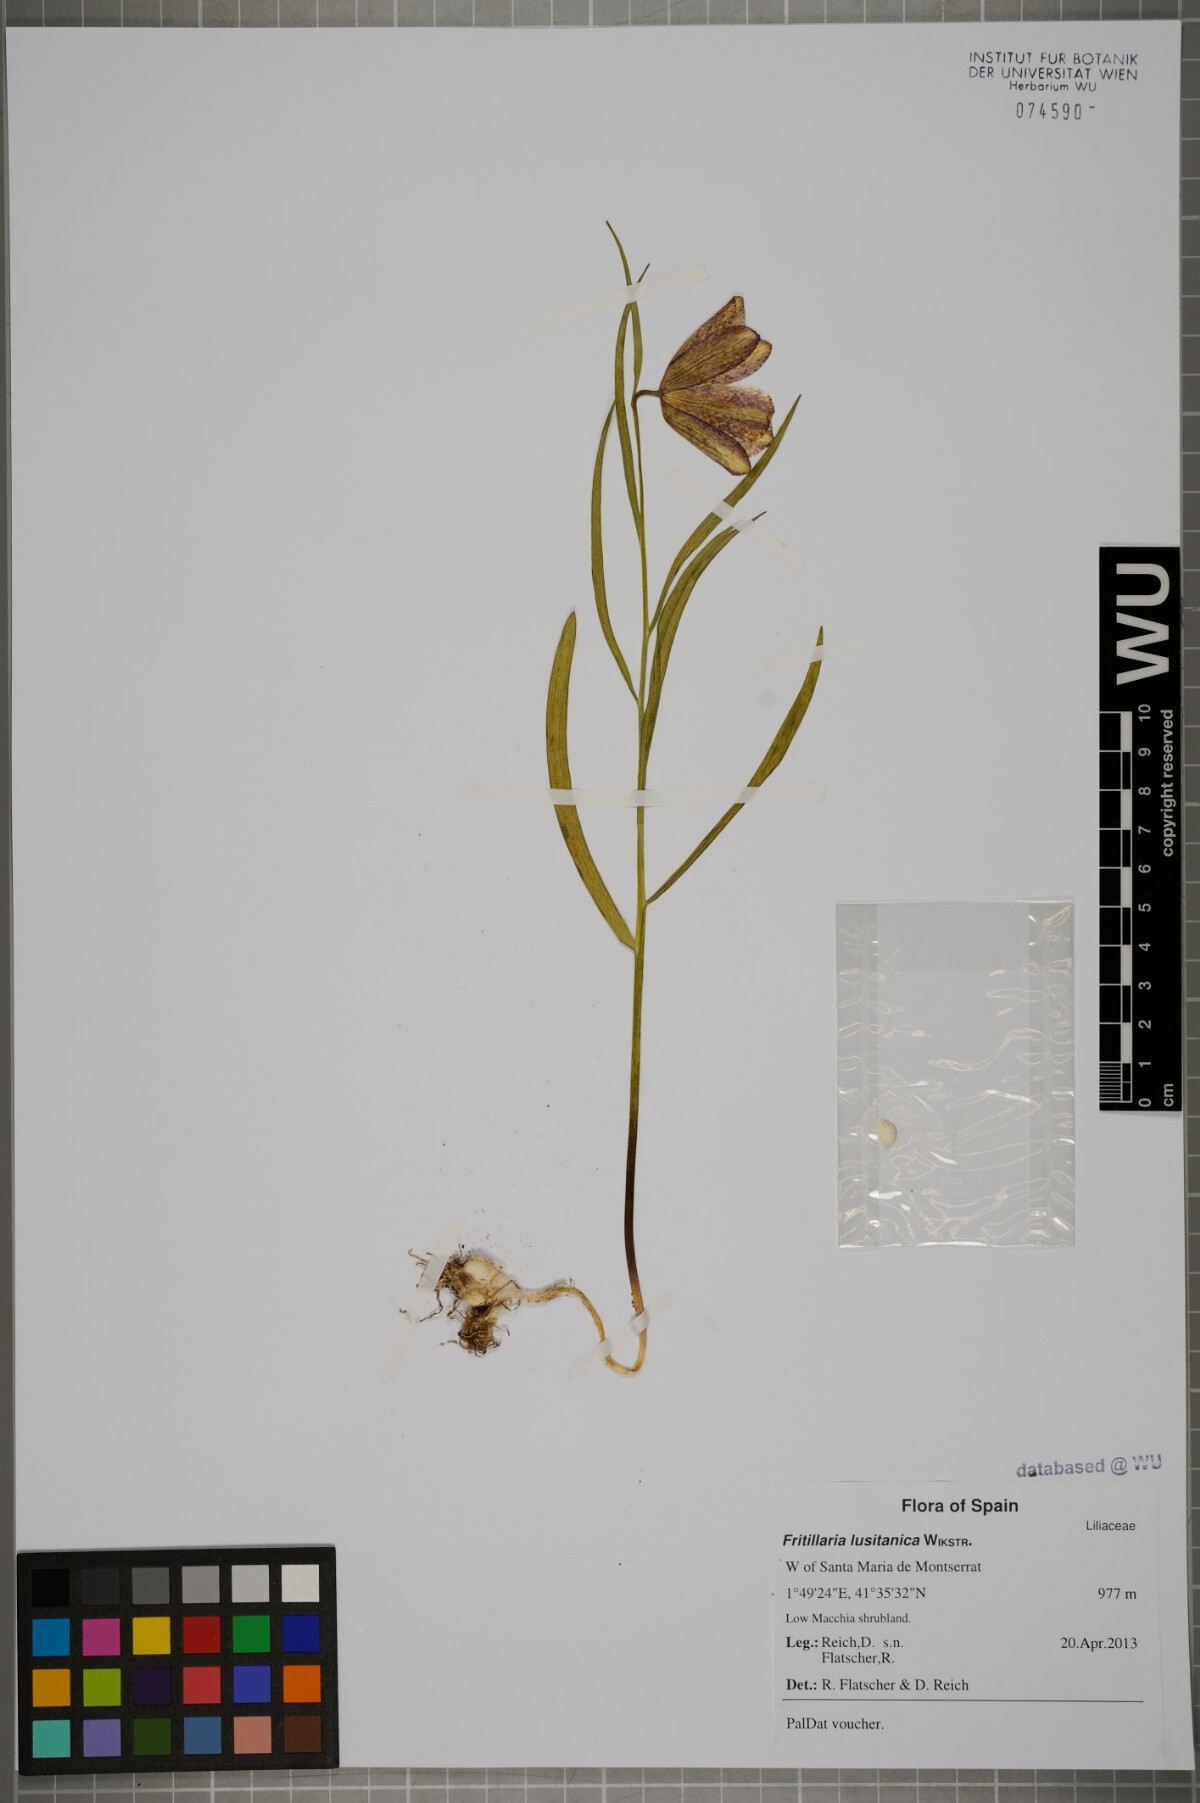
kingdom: Plantae
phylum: Tracheophyta
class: Liliopsida
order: Liliales
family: Liliaceae
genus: Fritillaria
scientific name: Fritillaria lusitanica
